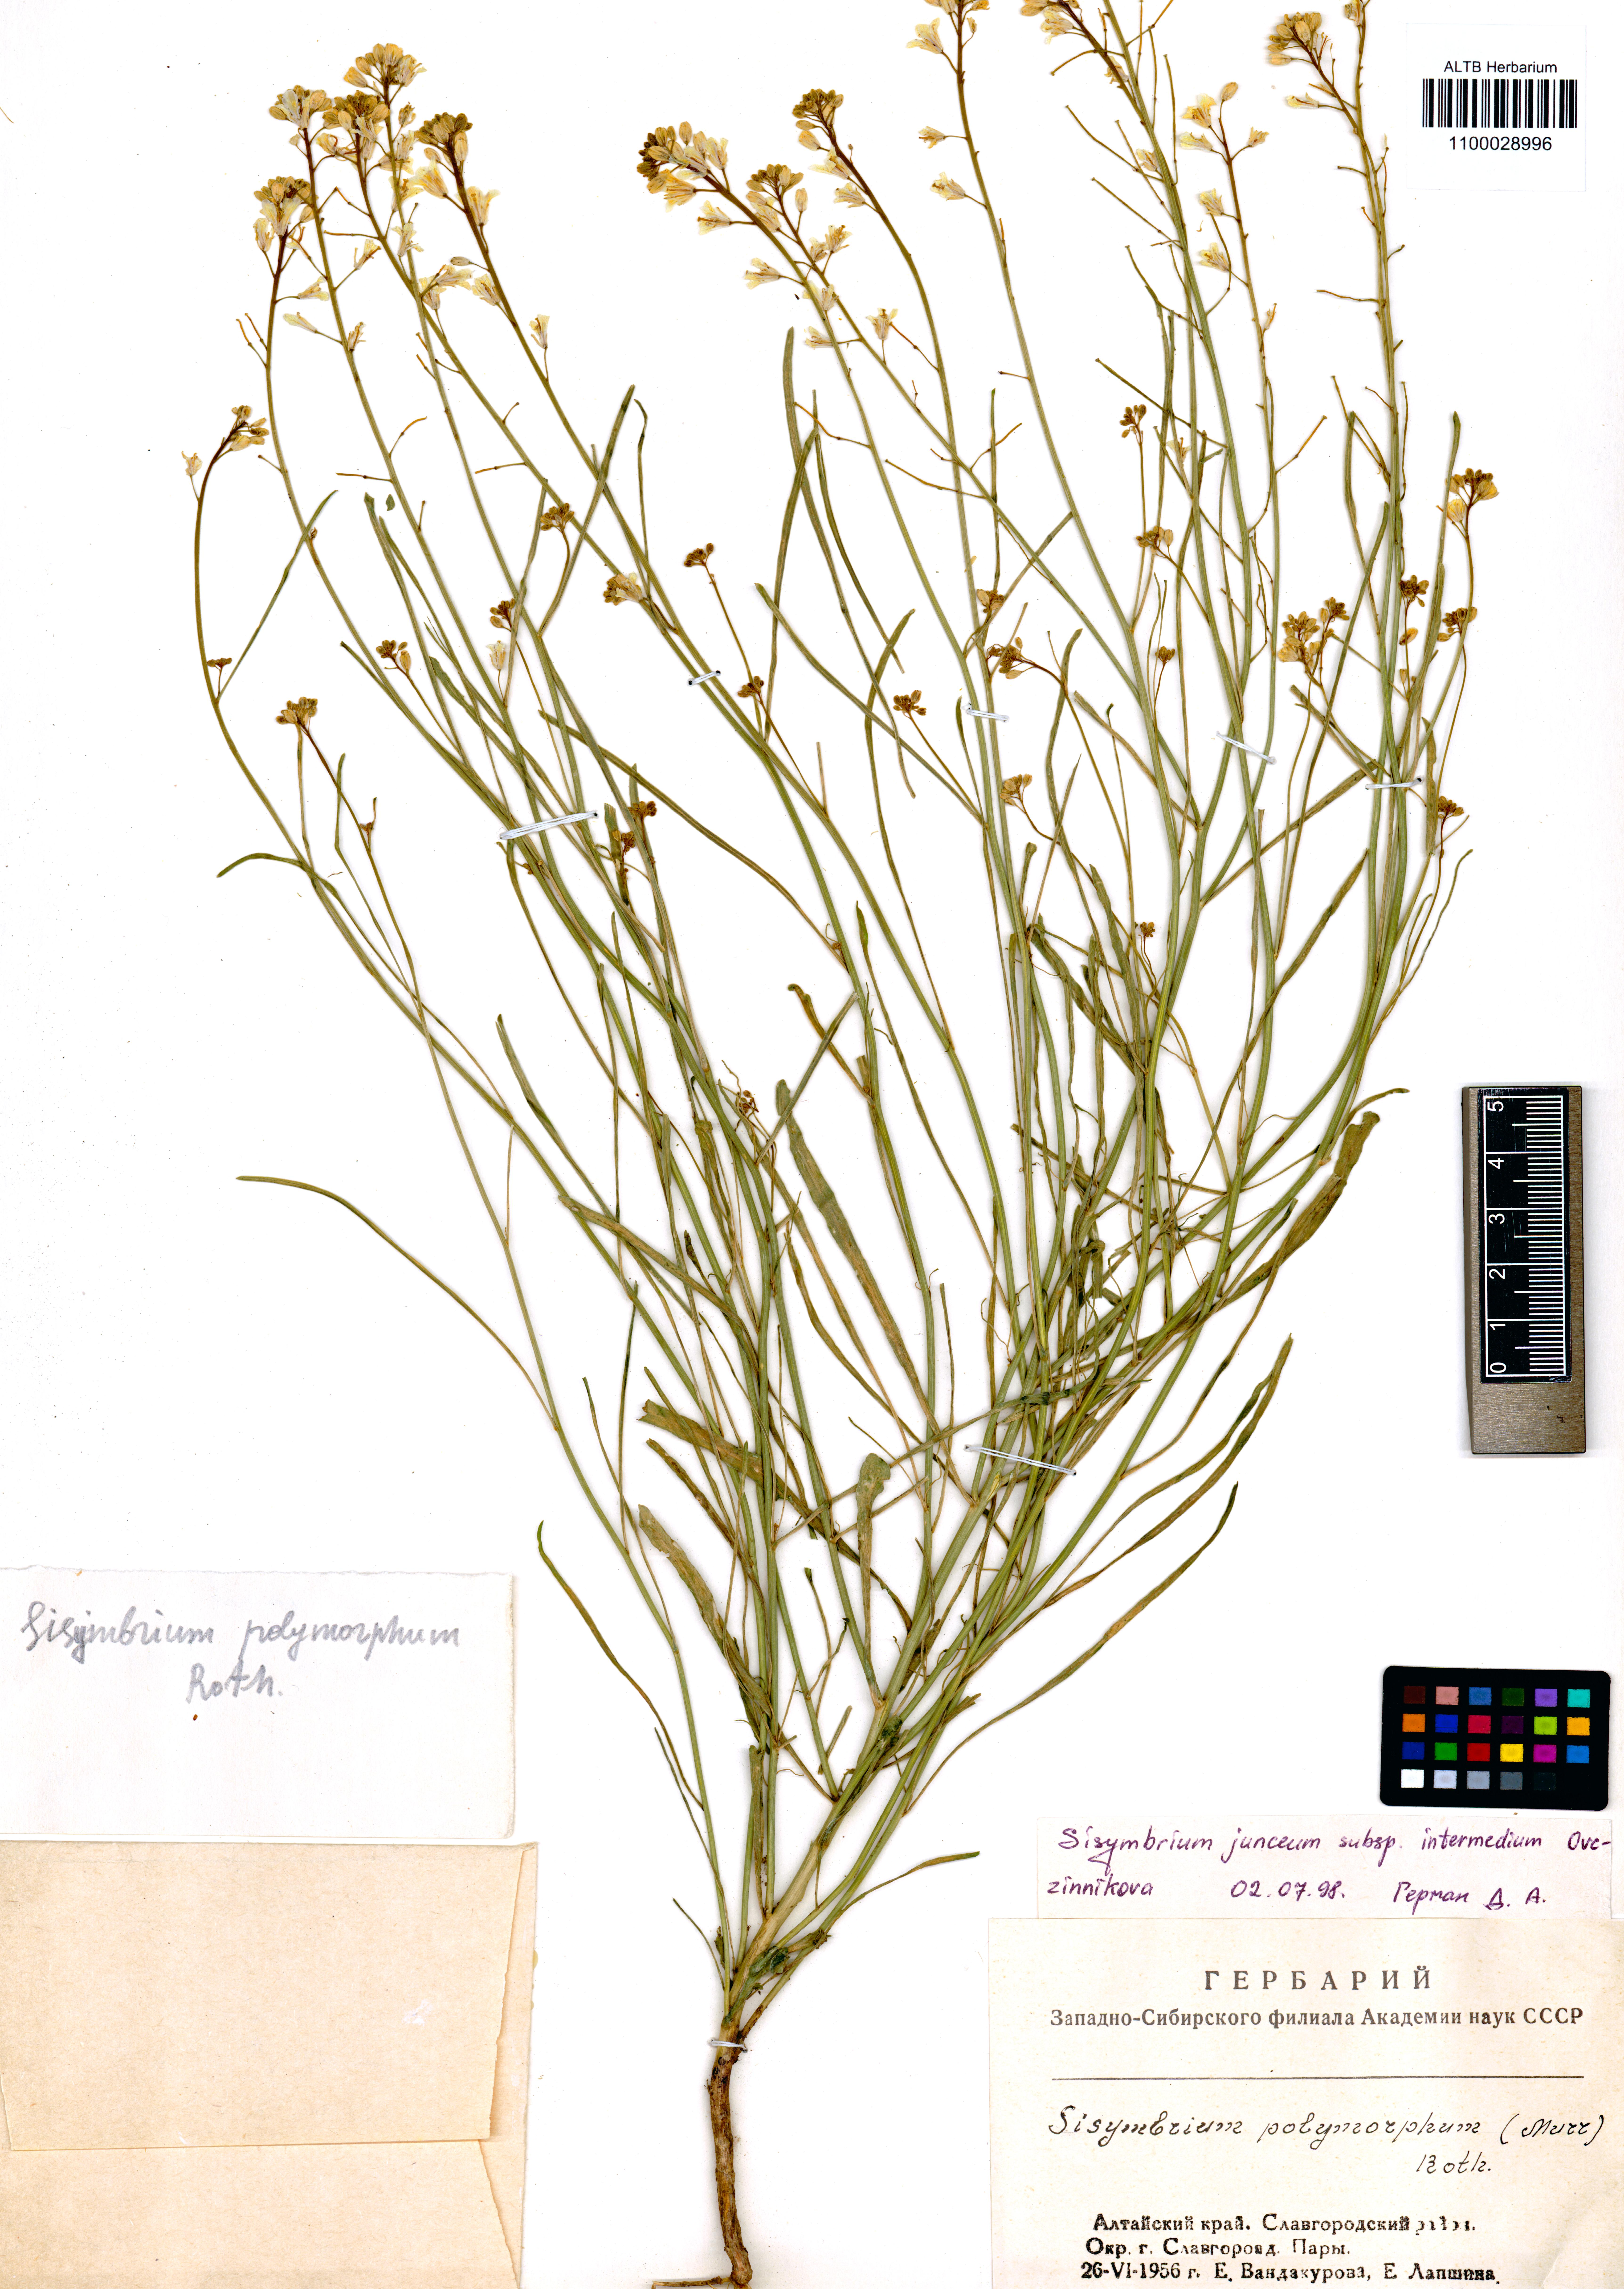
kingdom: Plantae
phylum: Tracheophyta
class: Magnoliopsida
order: Brassicales
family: Brassicaceae
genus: Sisymbrium
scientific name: Sisymbrium polymorphum
